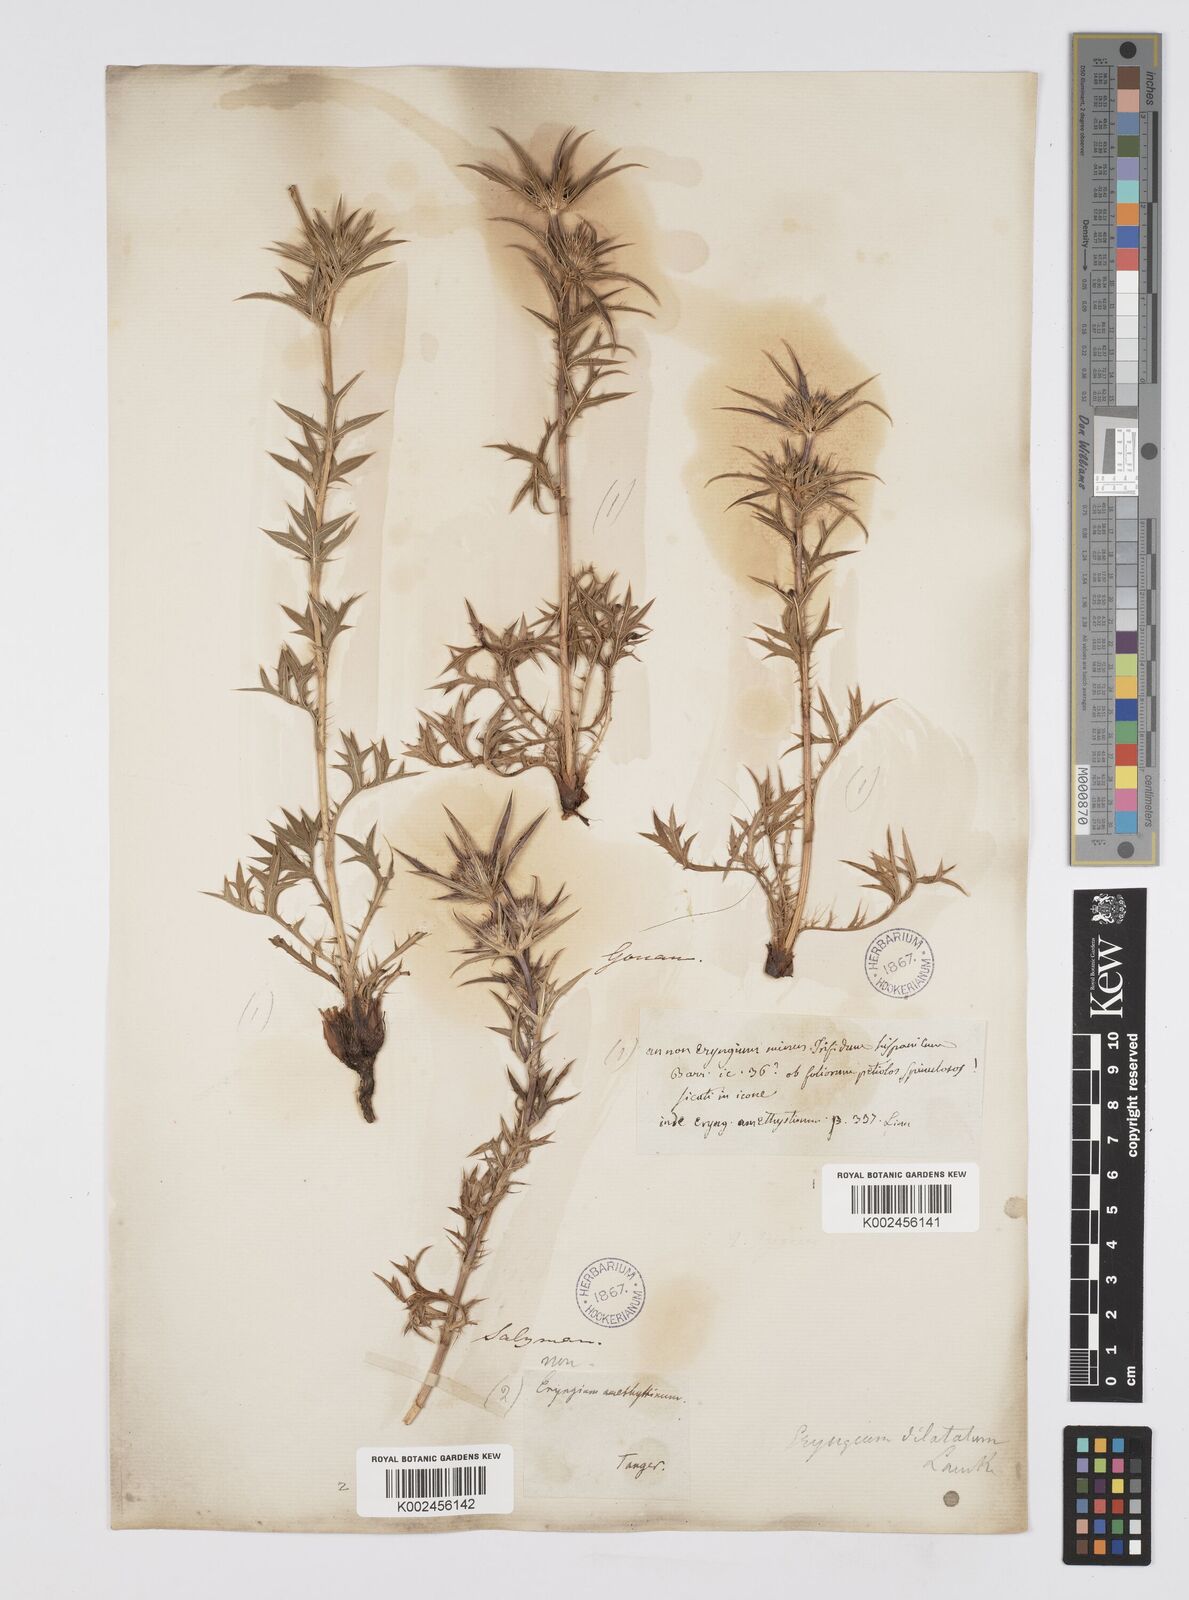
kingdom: Plantae
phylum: Tracheophyta
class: Magnoliopsida
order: Apiales
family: Apiaceae
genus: Eryngium
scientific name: Eryngium
